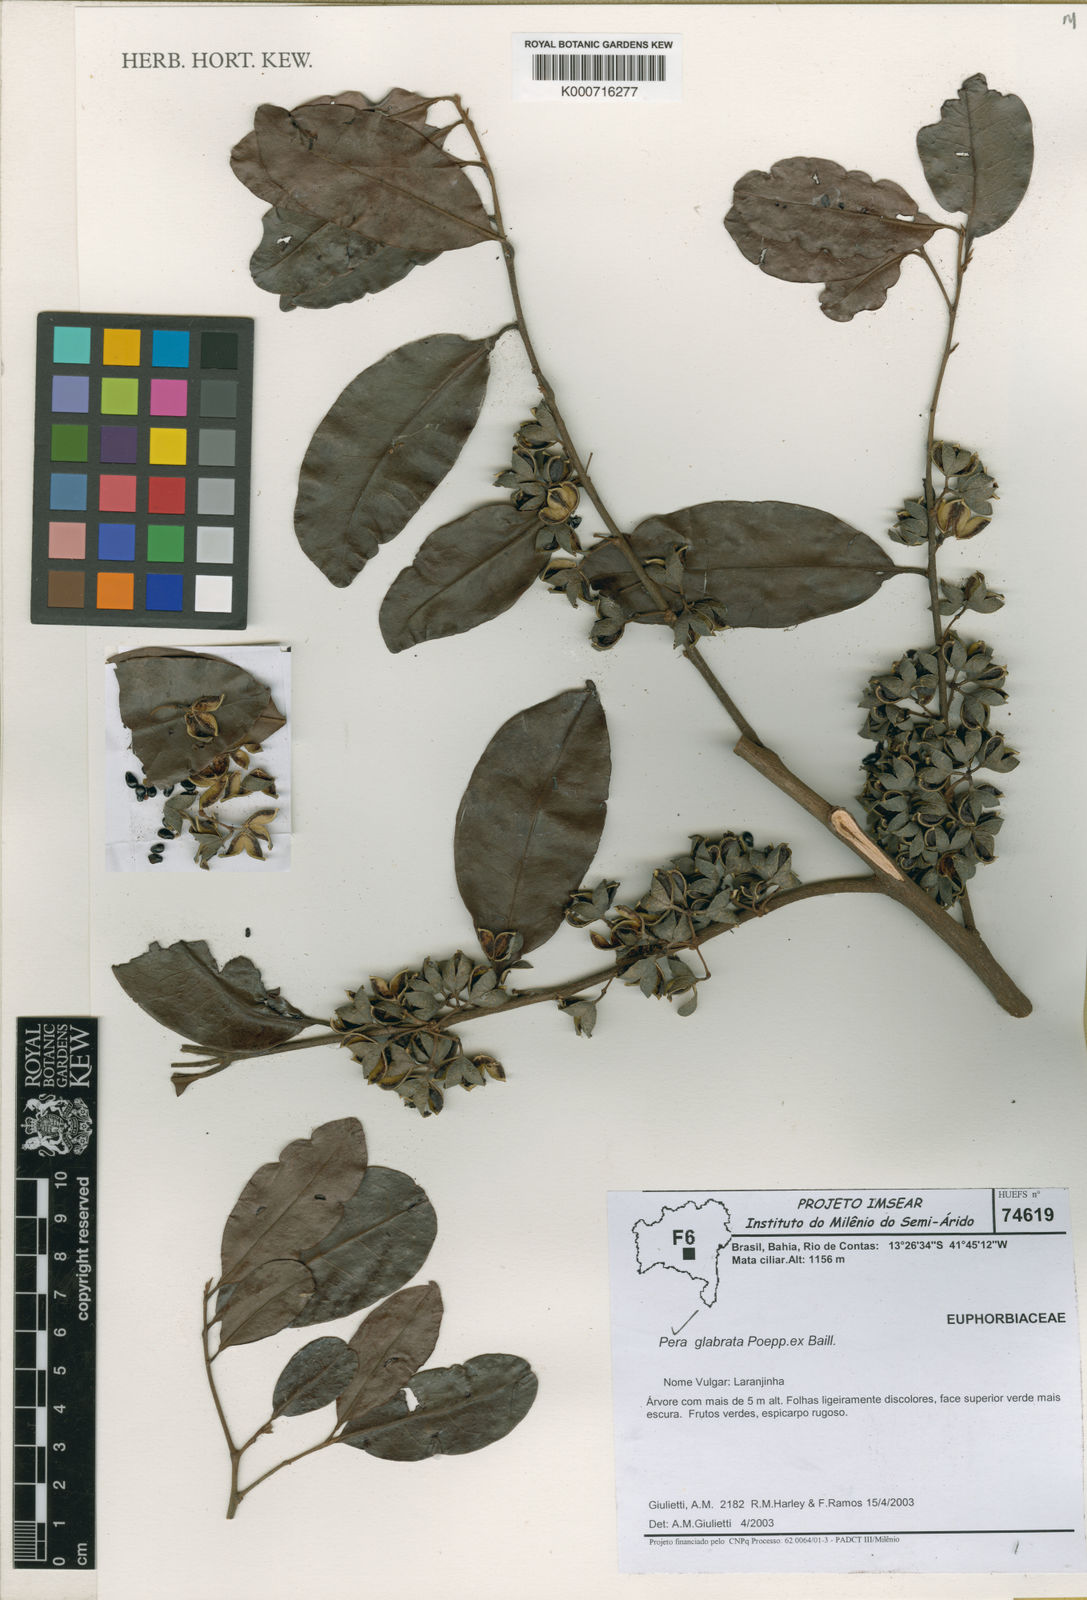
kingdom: Plantae
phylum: Tracheophyta
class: Magnoliopsida
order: Malpighiales
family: Peraceae
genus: Pera
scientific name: Pera glabrata
